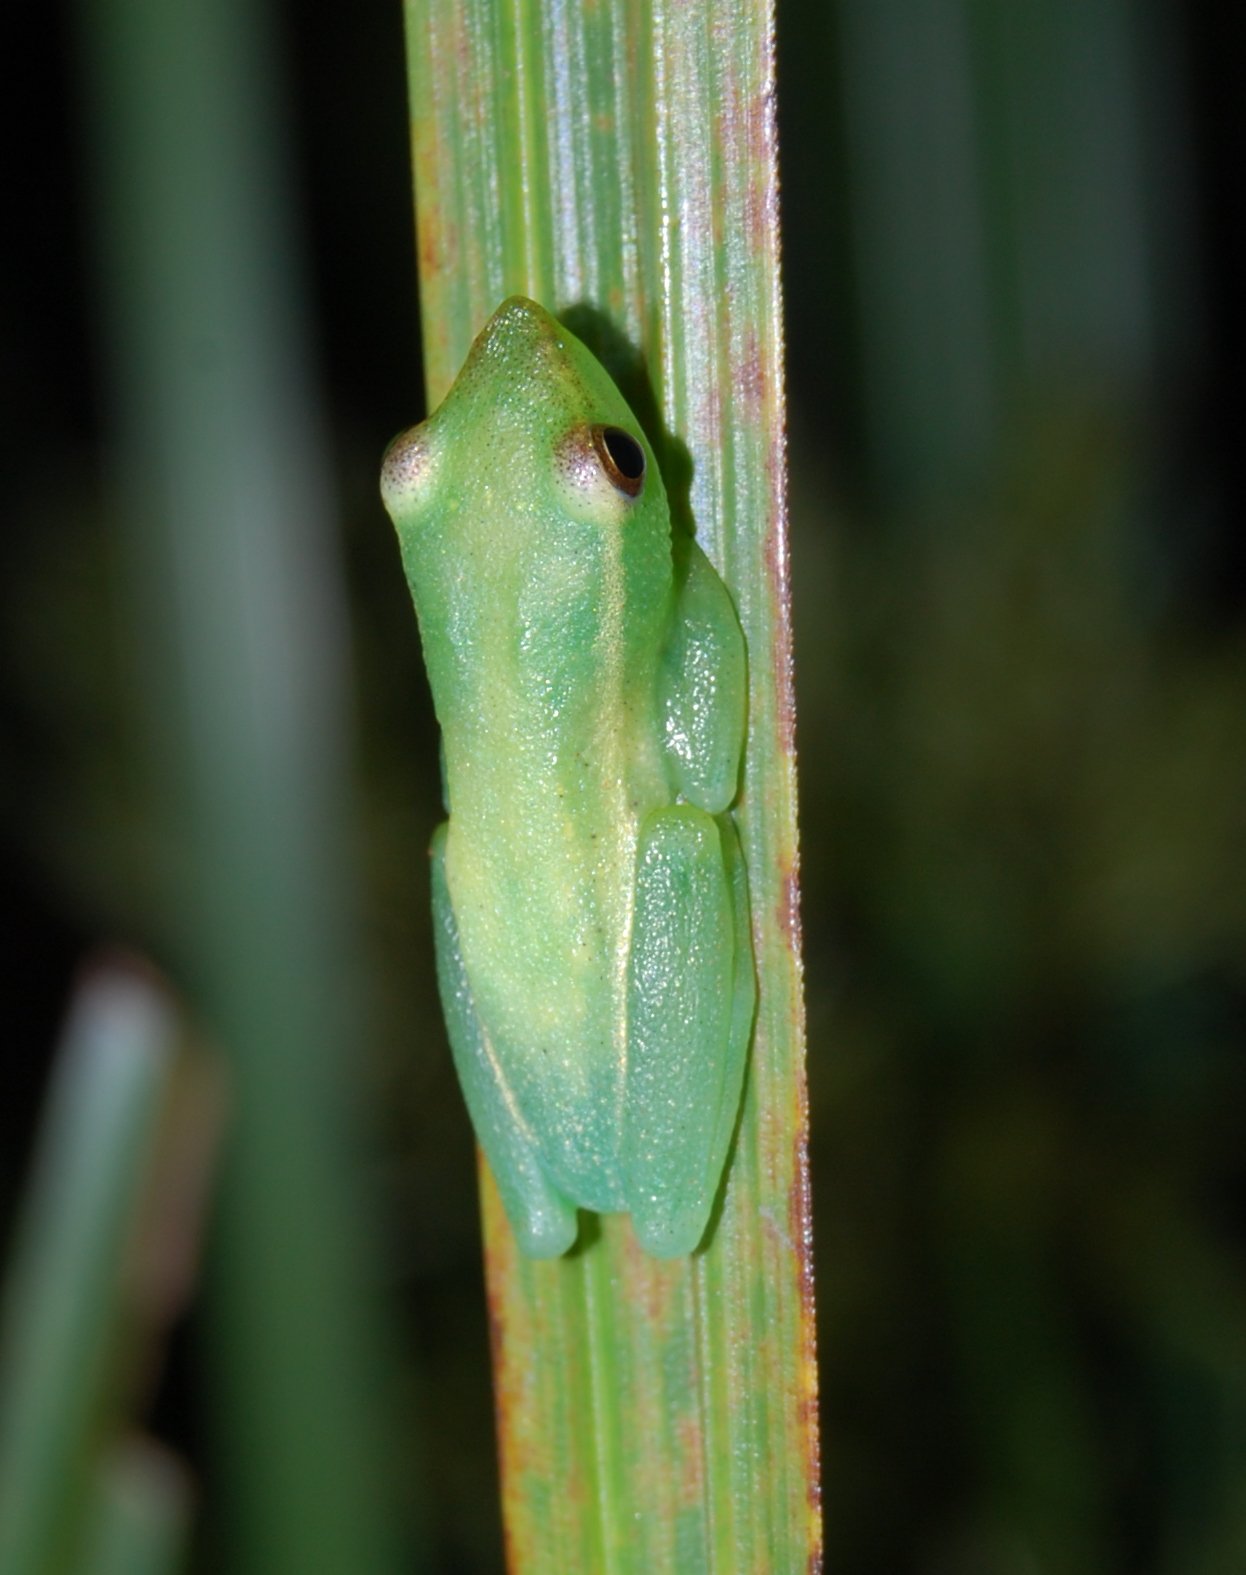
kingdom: Animalia
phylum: Chordata
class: Amphibia
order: Anura
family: Hyperoliidae
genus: Hyperolius
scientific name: Hyperolius nasicus
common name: Pointed long reed frog
